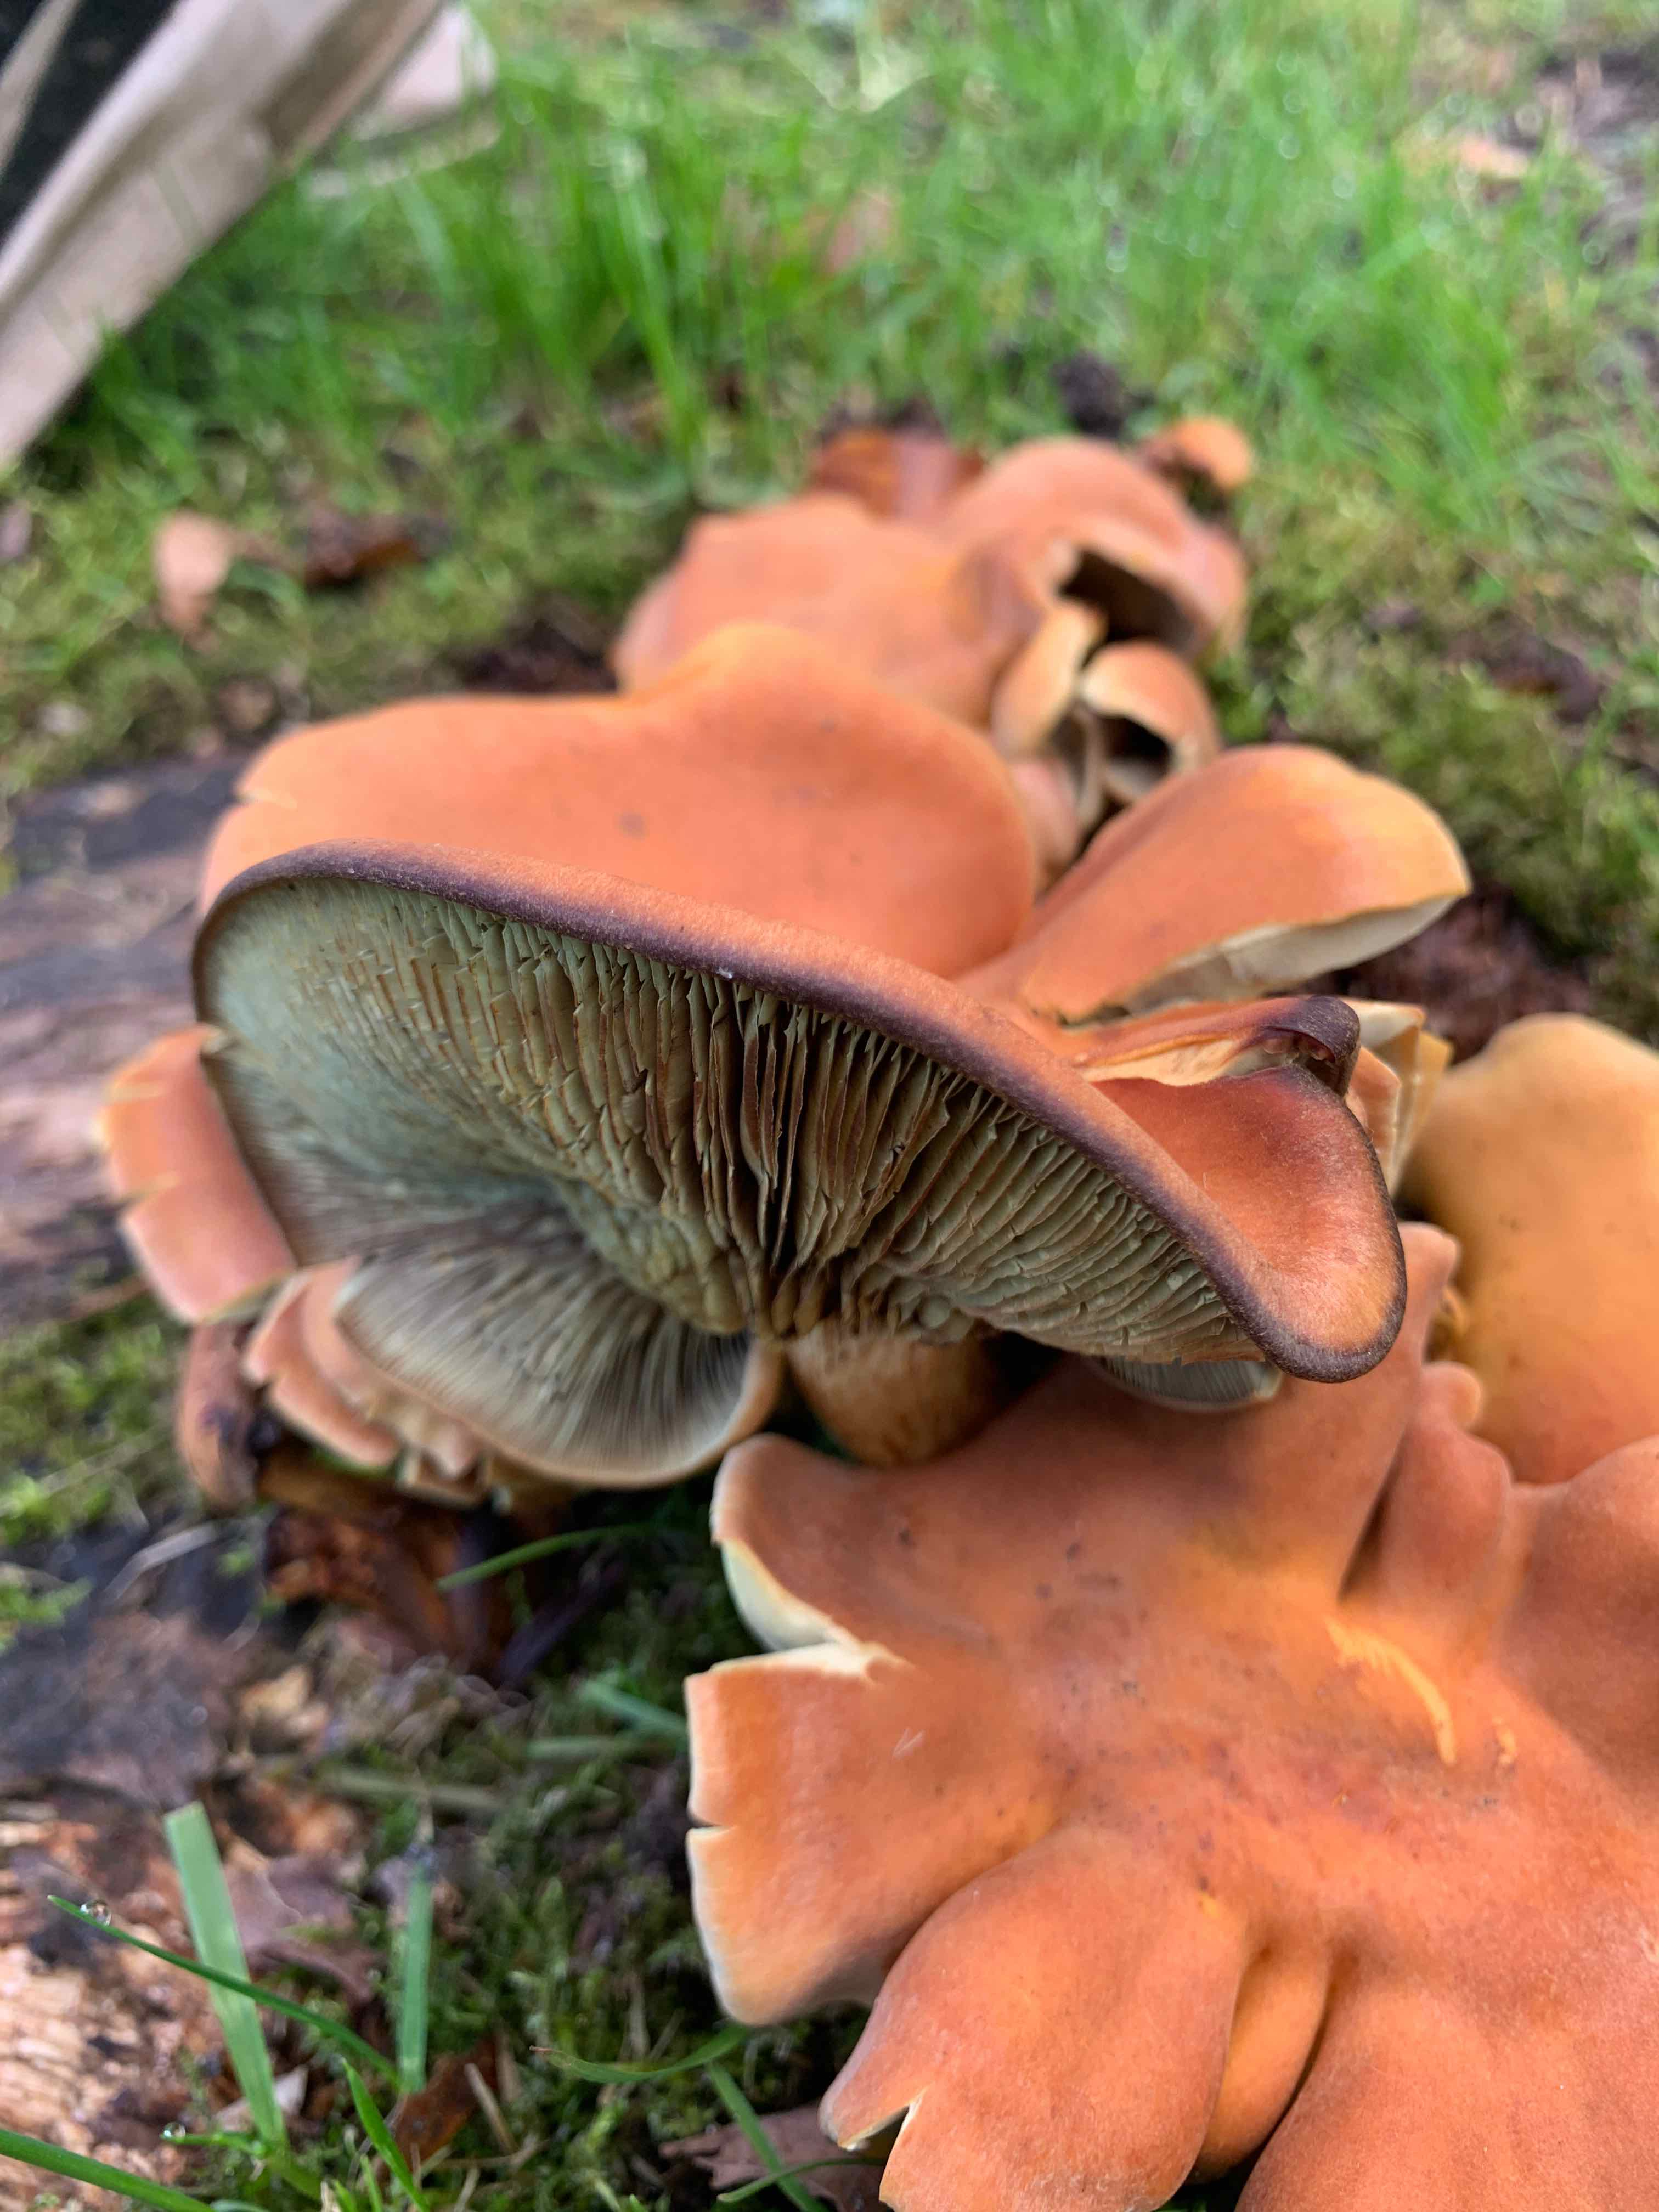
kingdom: Fungi
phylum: Basidiomycota
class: Agaricomycetes
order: Agaricales
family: Strophariaceae
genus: Hypholoma
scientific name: Hypholoma
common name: svovlhat
